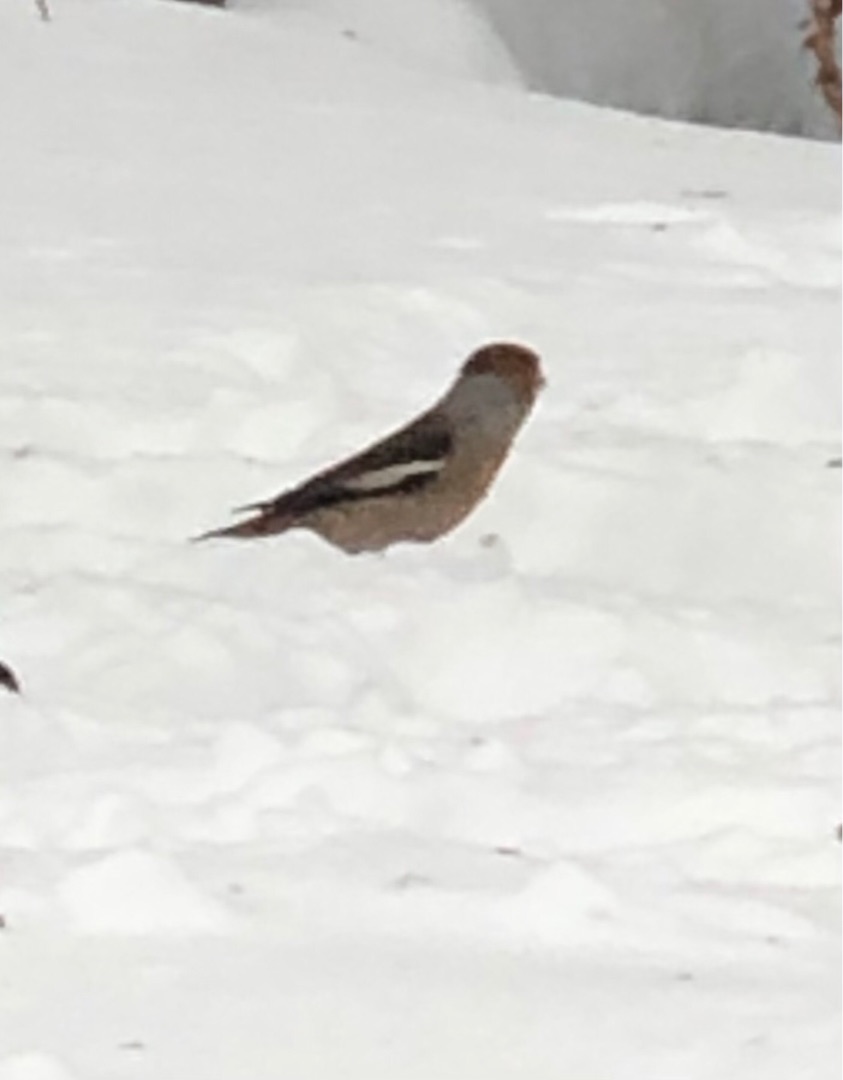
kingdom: Animalia
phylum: Chordata
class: Aves
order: Passeriformes
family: Fringillidae
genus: Coccothraustes
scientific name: Coccothraustes coccothraustes
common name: Kernebider
